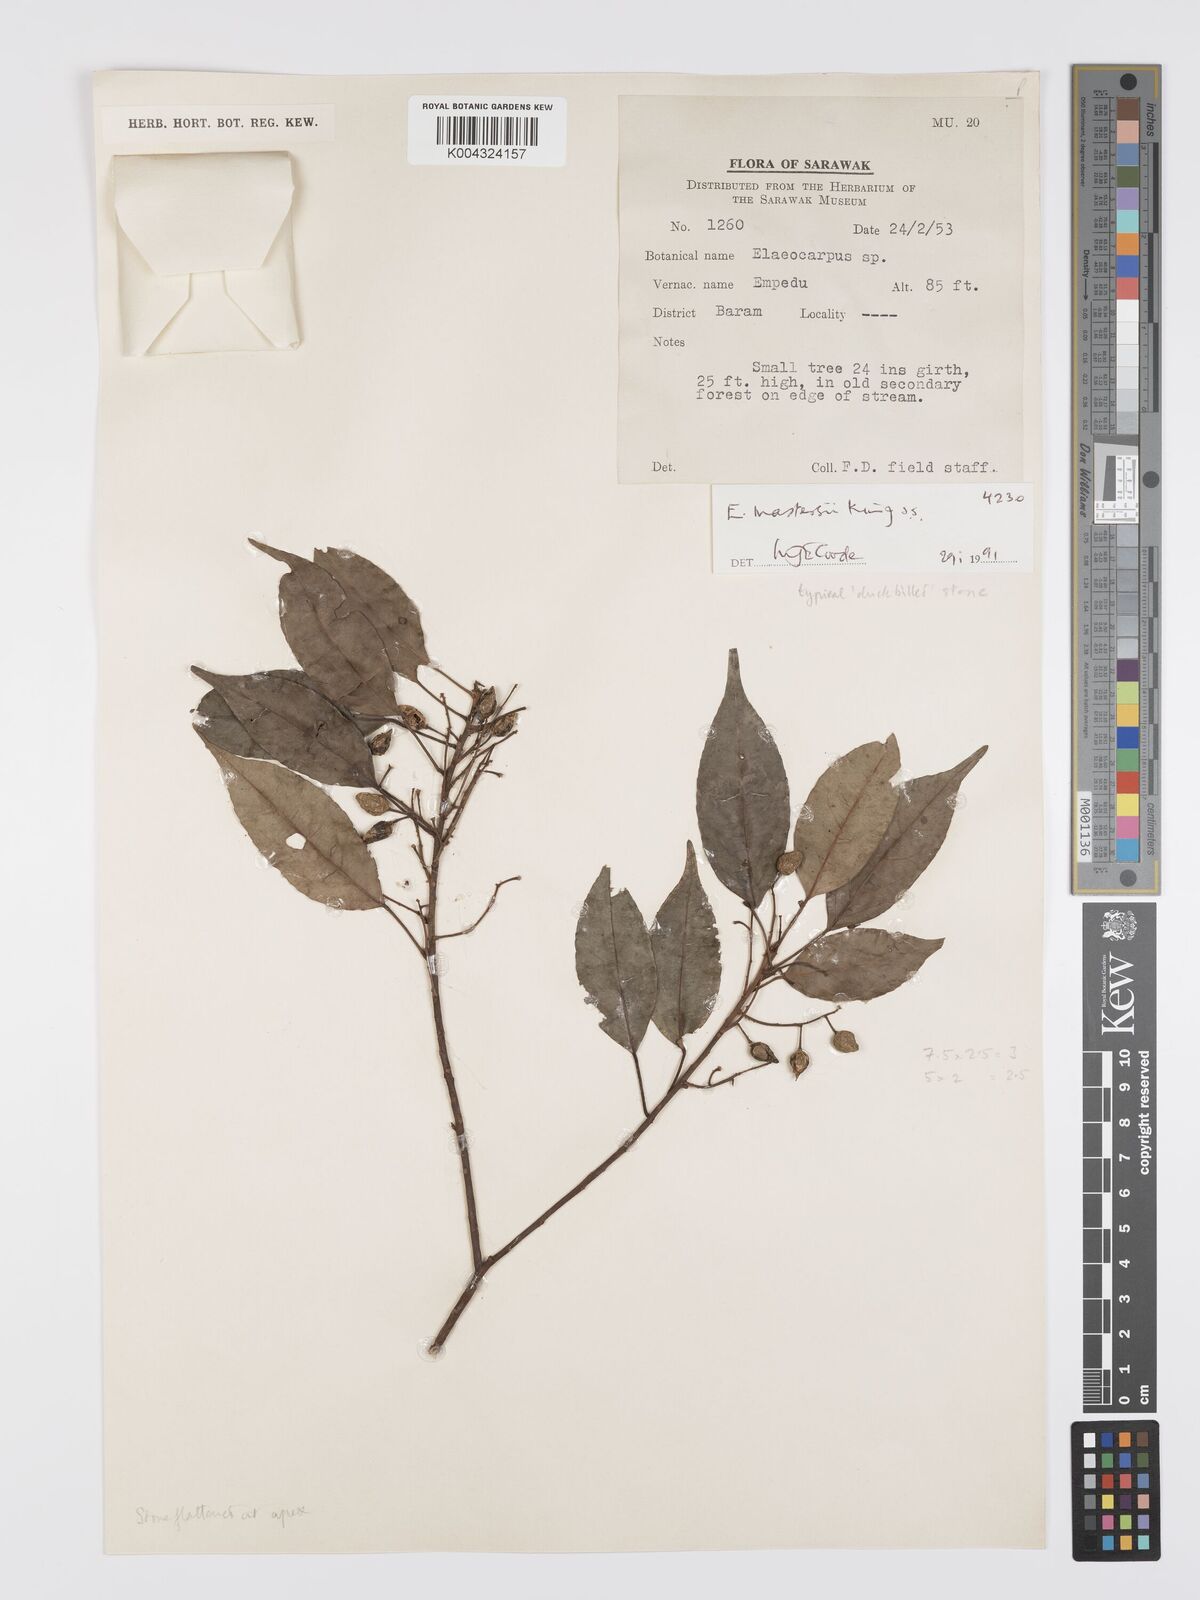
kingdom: Plantae
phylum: Tracheophyta
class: Magnoliopsida
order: Oxalidales
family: Elaeocarpaceae
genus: Elaeocarpus
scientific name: Elaeocarpus mastersii
